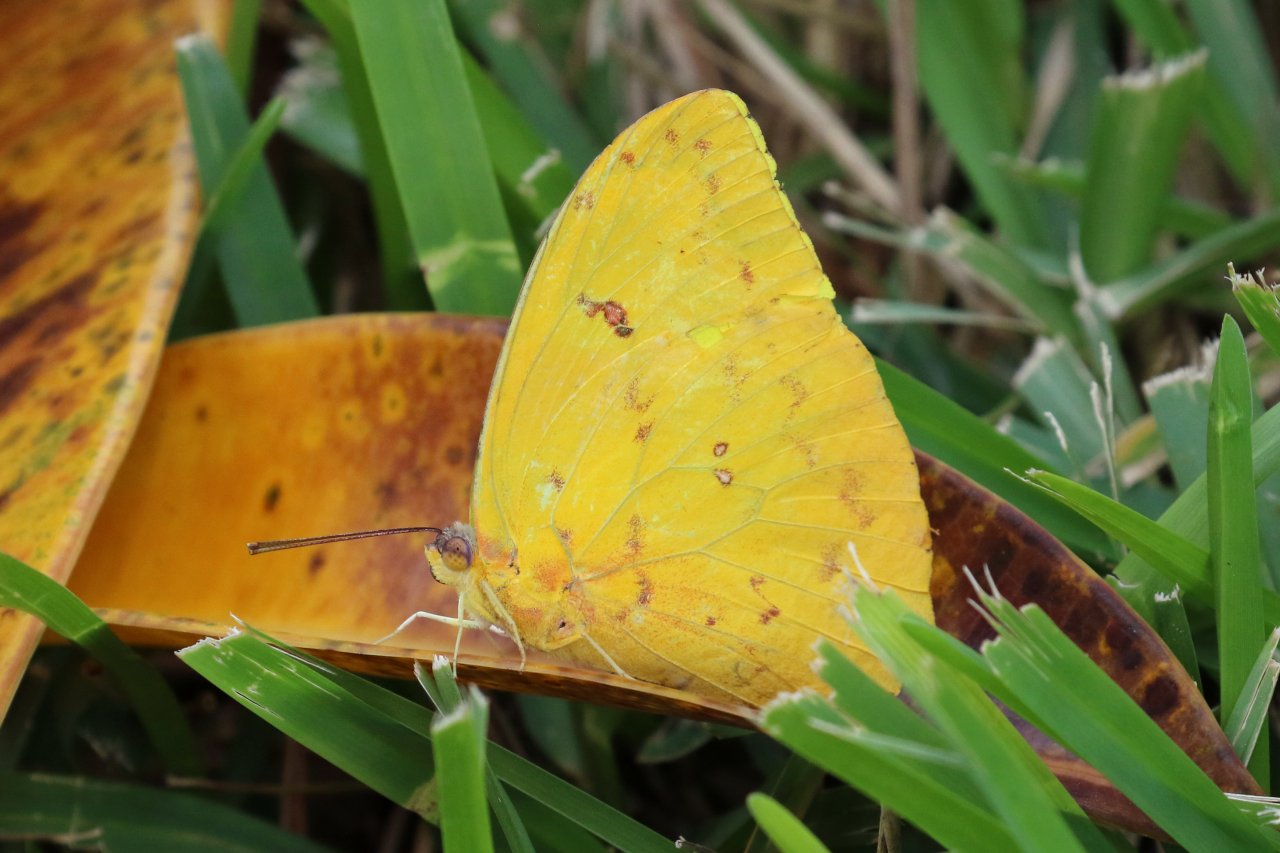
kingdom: Animalia
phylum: Arthropoda
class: Insecta
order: Lepidoptera
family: Pieridae
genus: Phoebis
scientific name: Phoebis philea
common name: Orange-barred Sulphur
